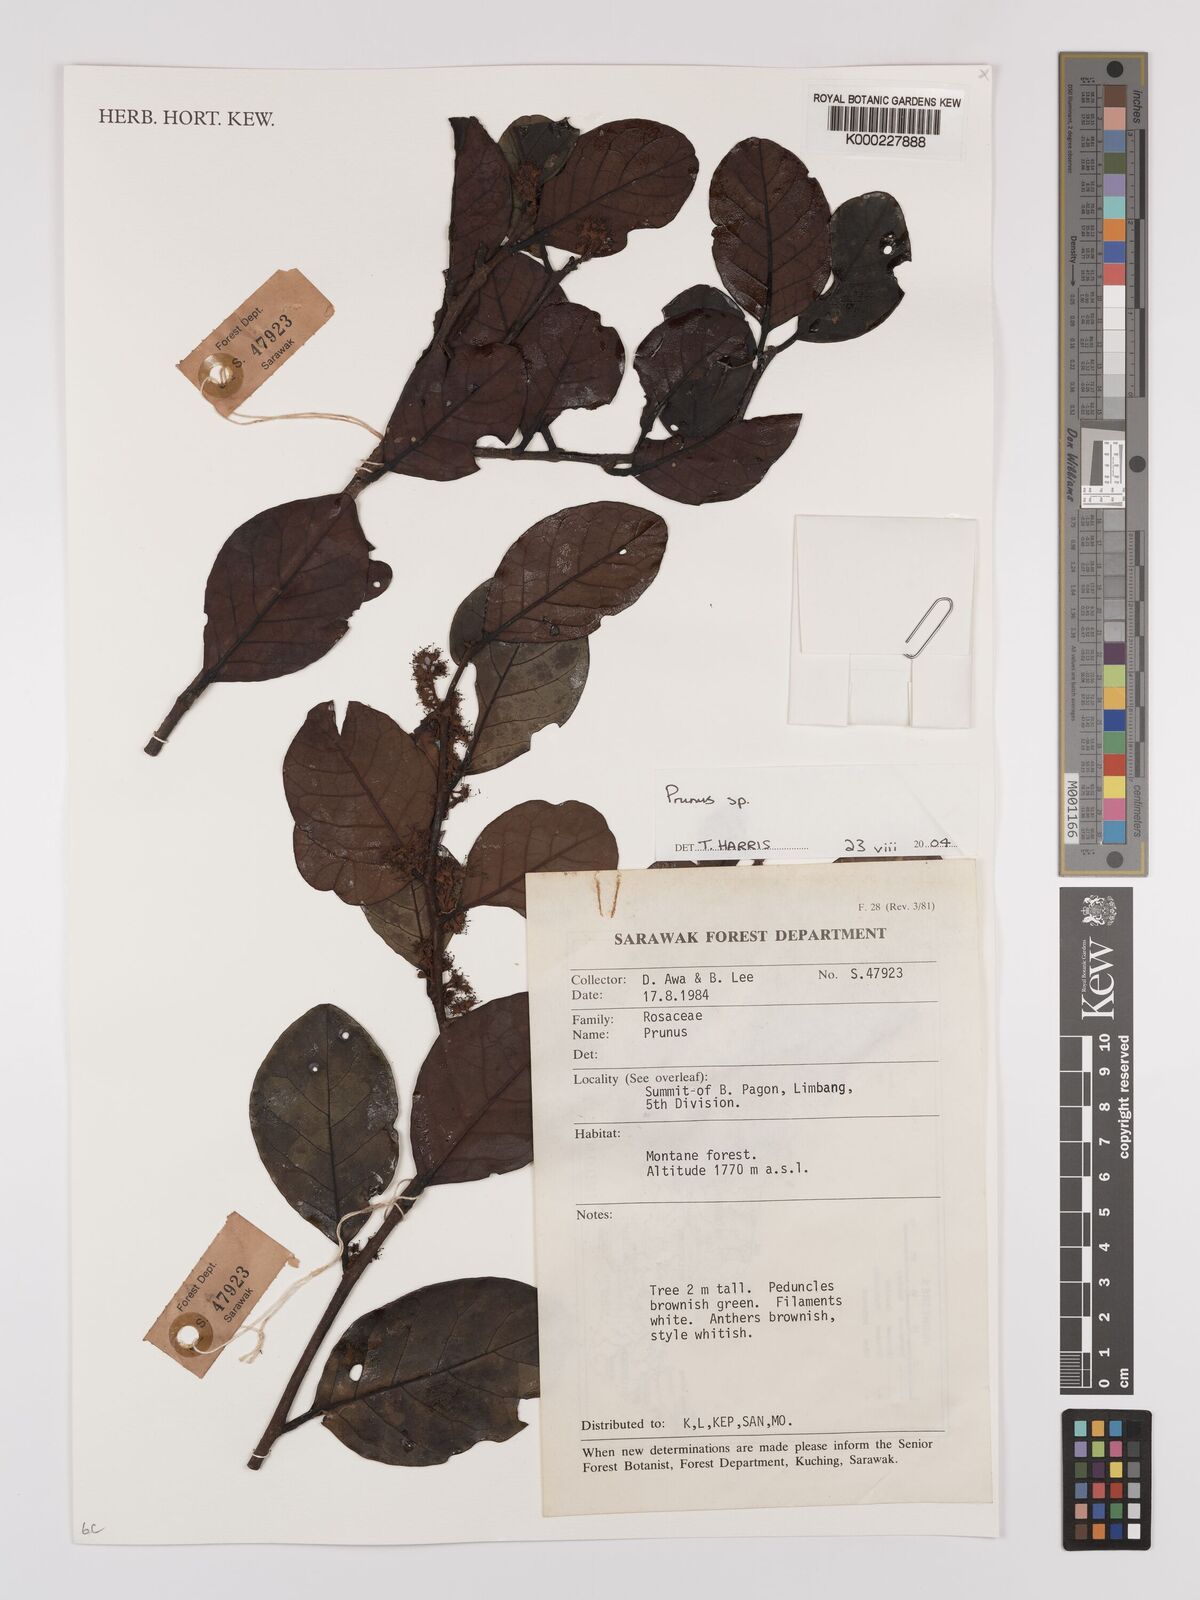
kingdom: Plantae
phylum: Tracheophyta
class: Magnoliopsida
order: Rosales
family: Rosaceae
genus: Prunus
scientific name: Prunus
